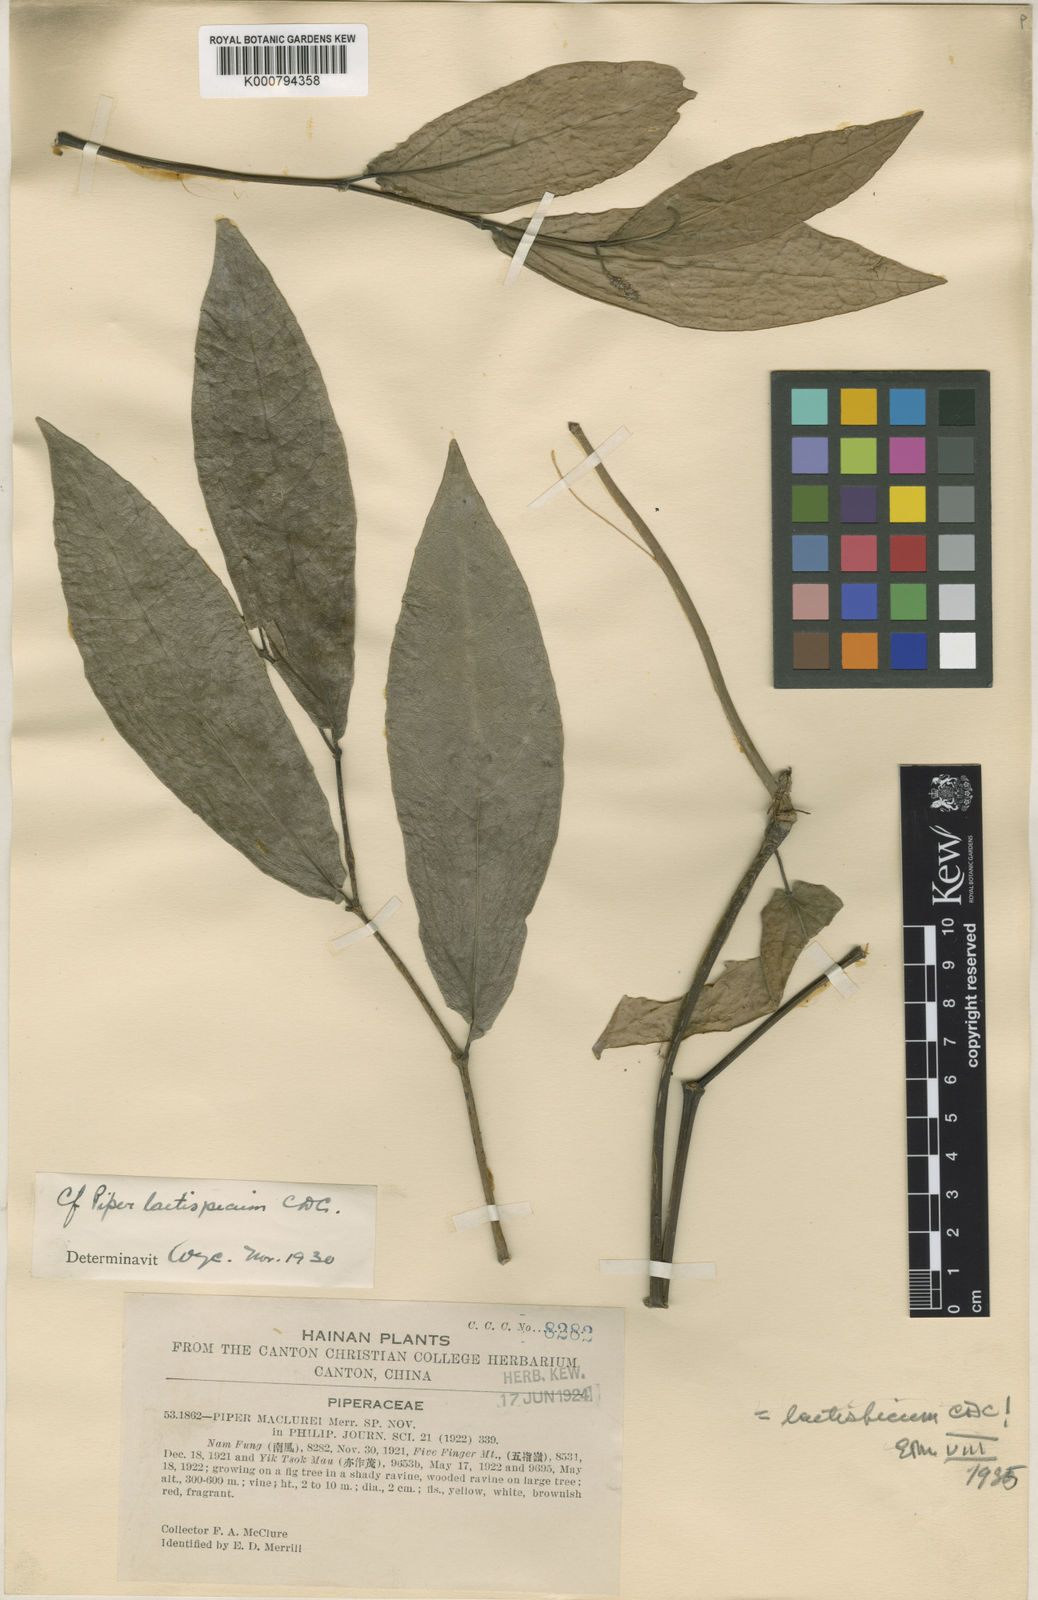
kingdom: Plantae
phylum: Tracheophyta
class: Magnoliopsida
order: Piperales
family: Piperaceae
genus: Piper
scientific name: Piper laetispicum
